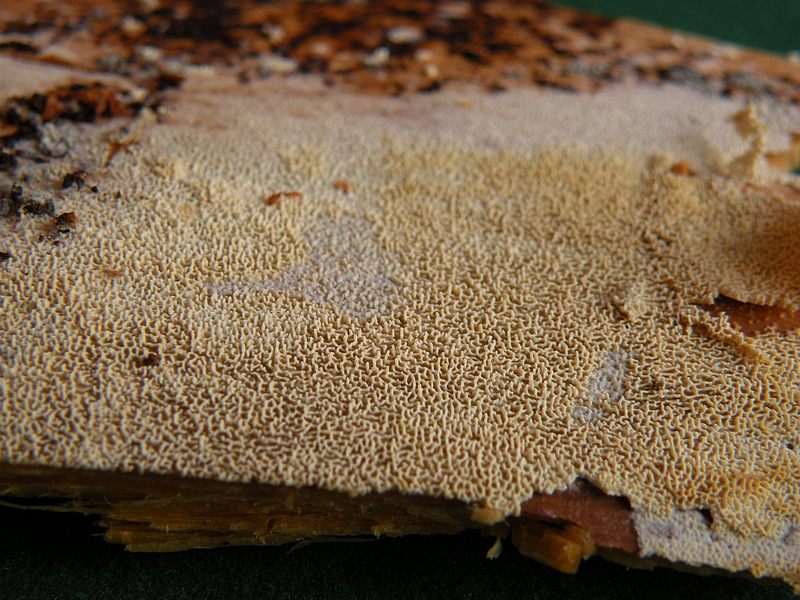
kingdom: Fungi
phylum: Basidiomycota
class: Agaricomycetes
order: Hymenochaetales
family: Schizoporaceae
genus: Schizopora
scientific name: Schizopora paradoxa
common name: hvid tandsvamp
